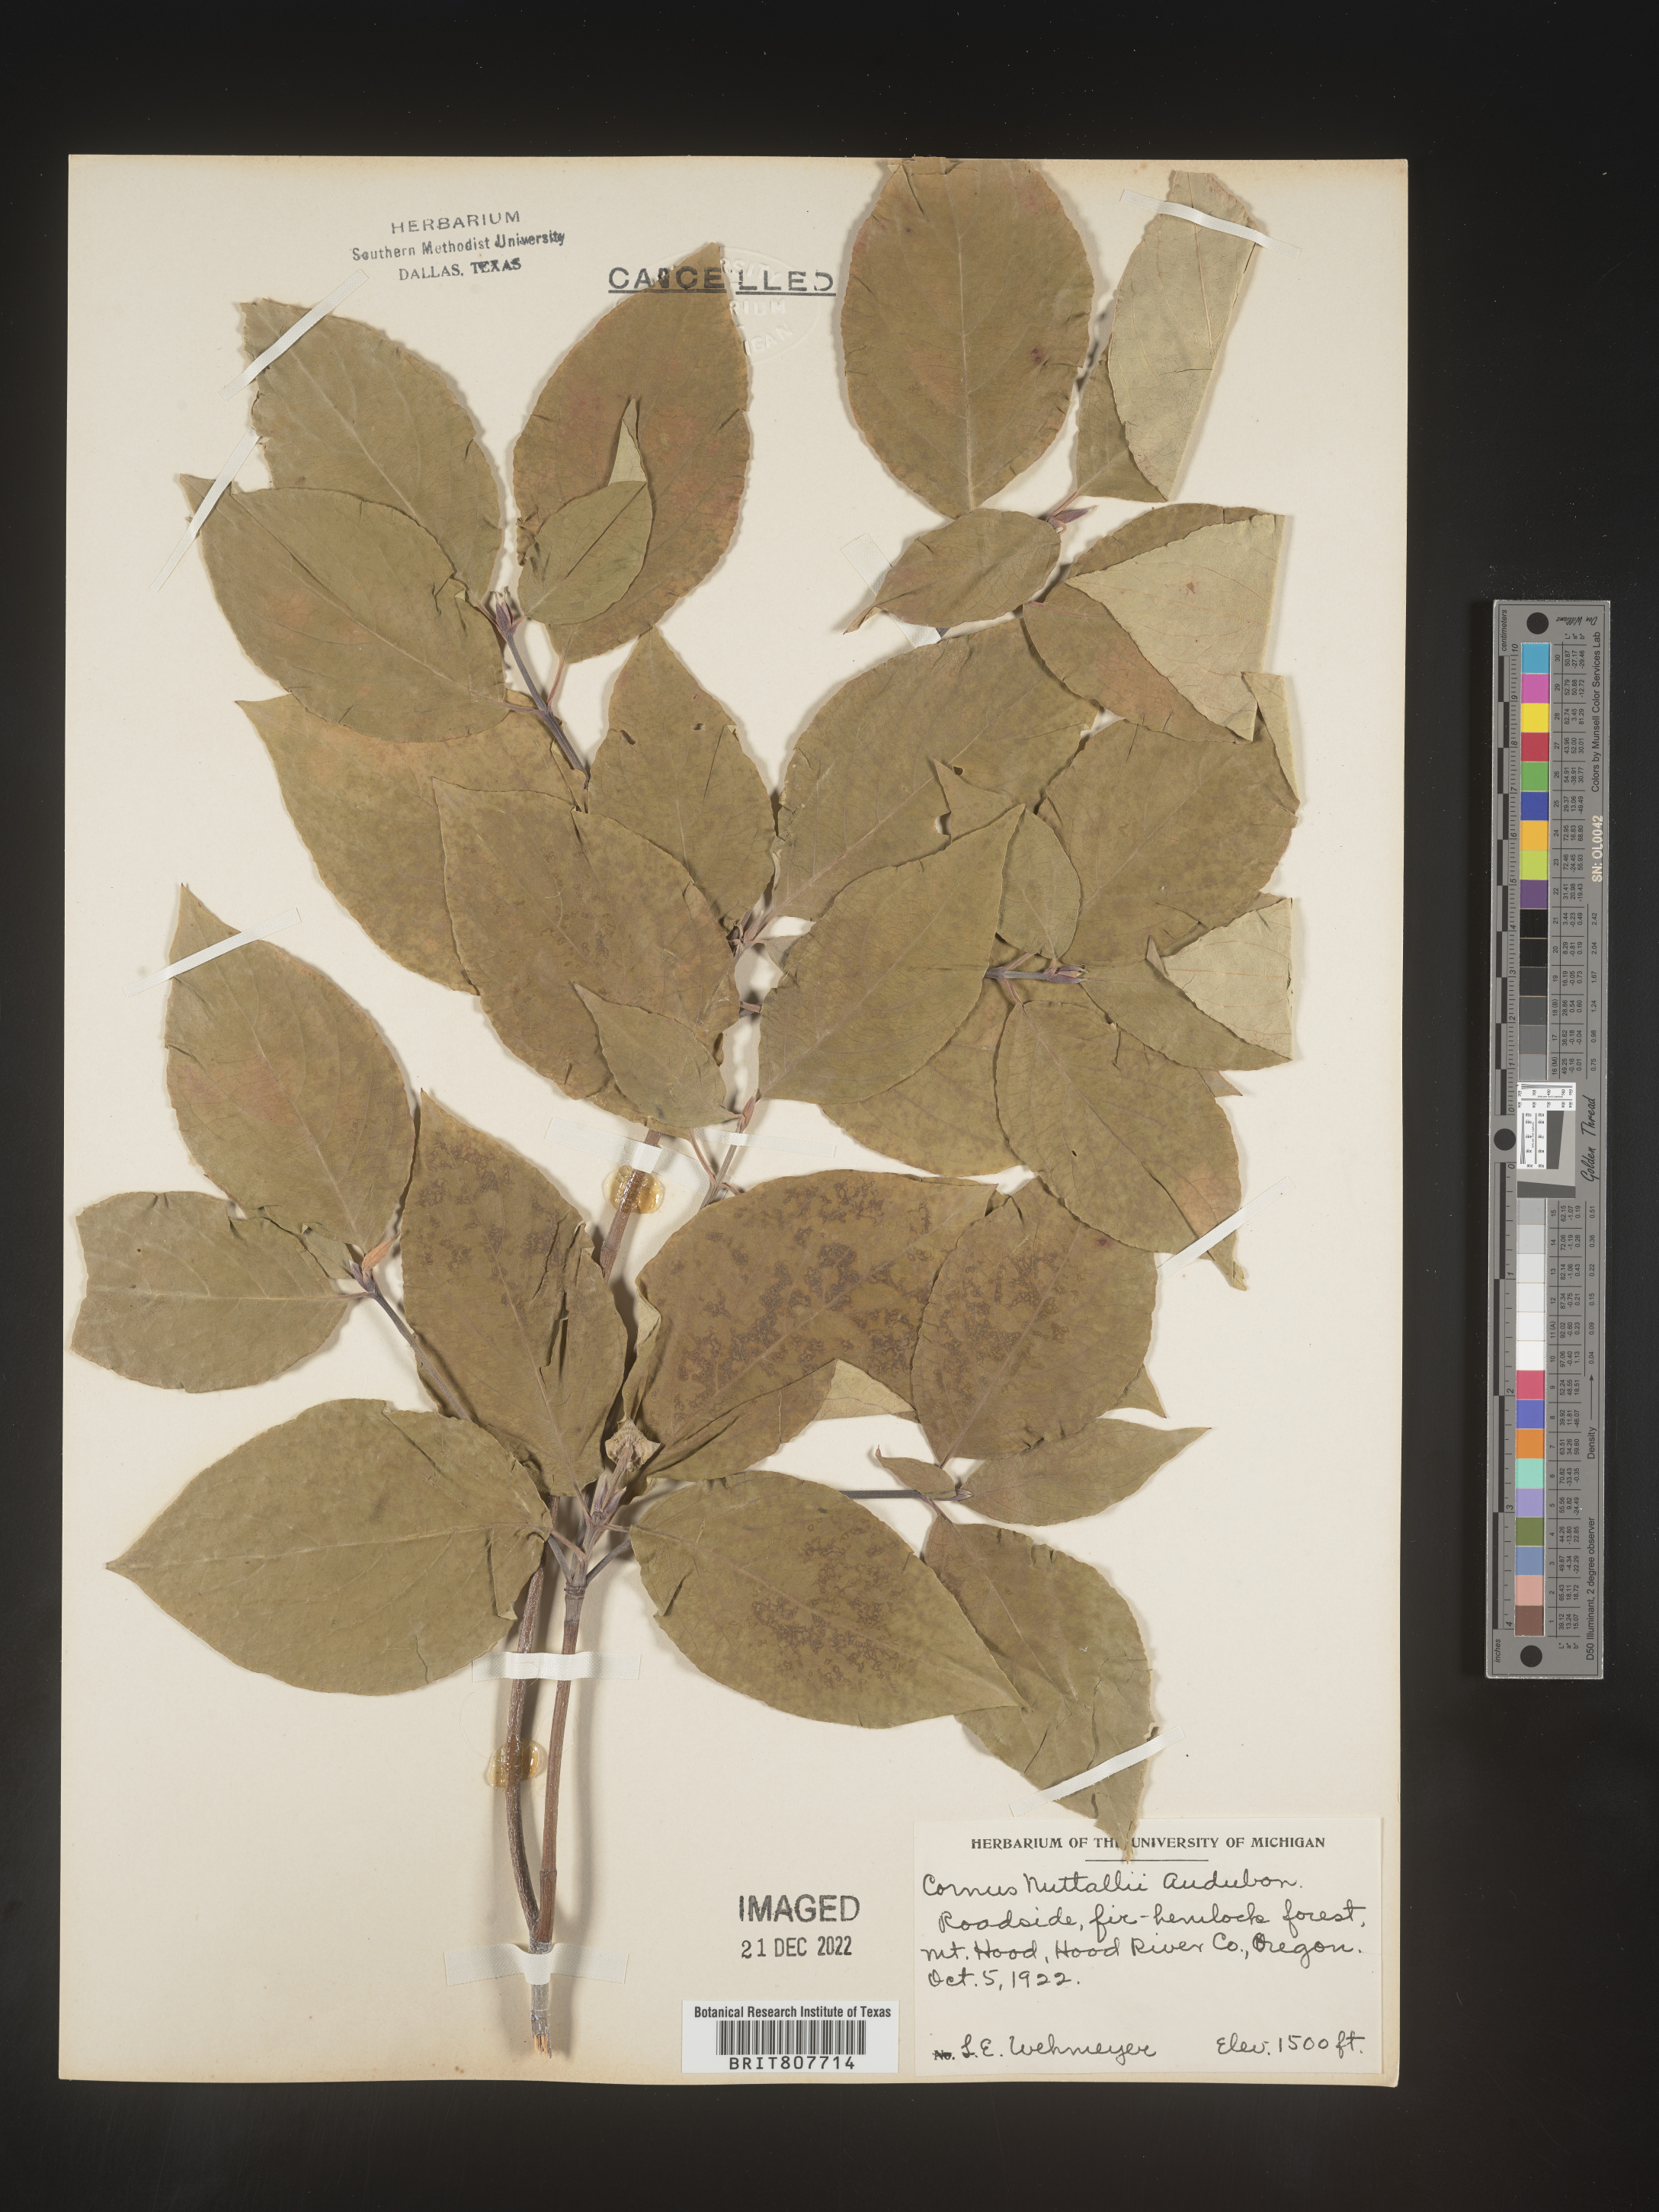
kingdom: Plantae
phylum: Tracheophyta
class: Magnoliopsida
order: Cornales
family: Cornaceae
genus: Cornus
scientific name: Cornus nuttallii
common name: Pacific dogwood
